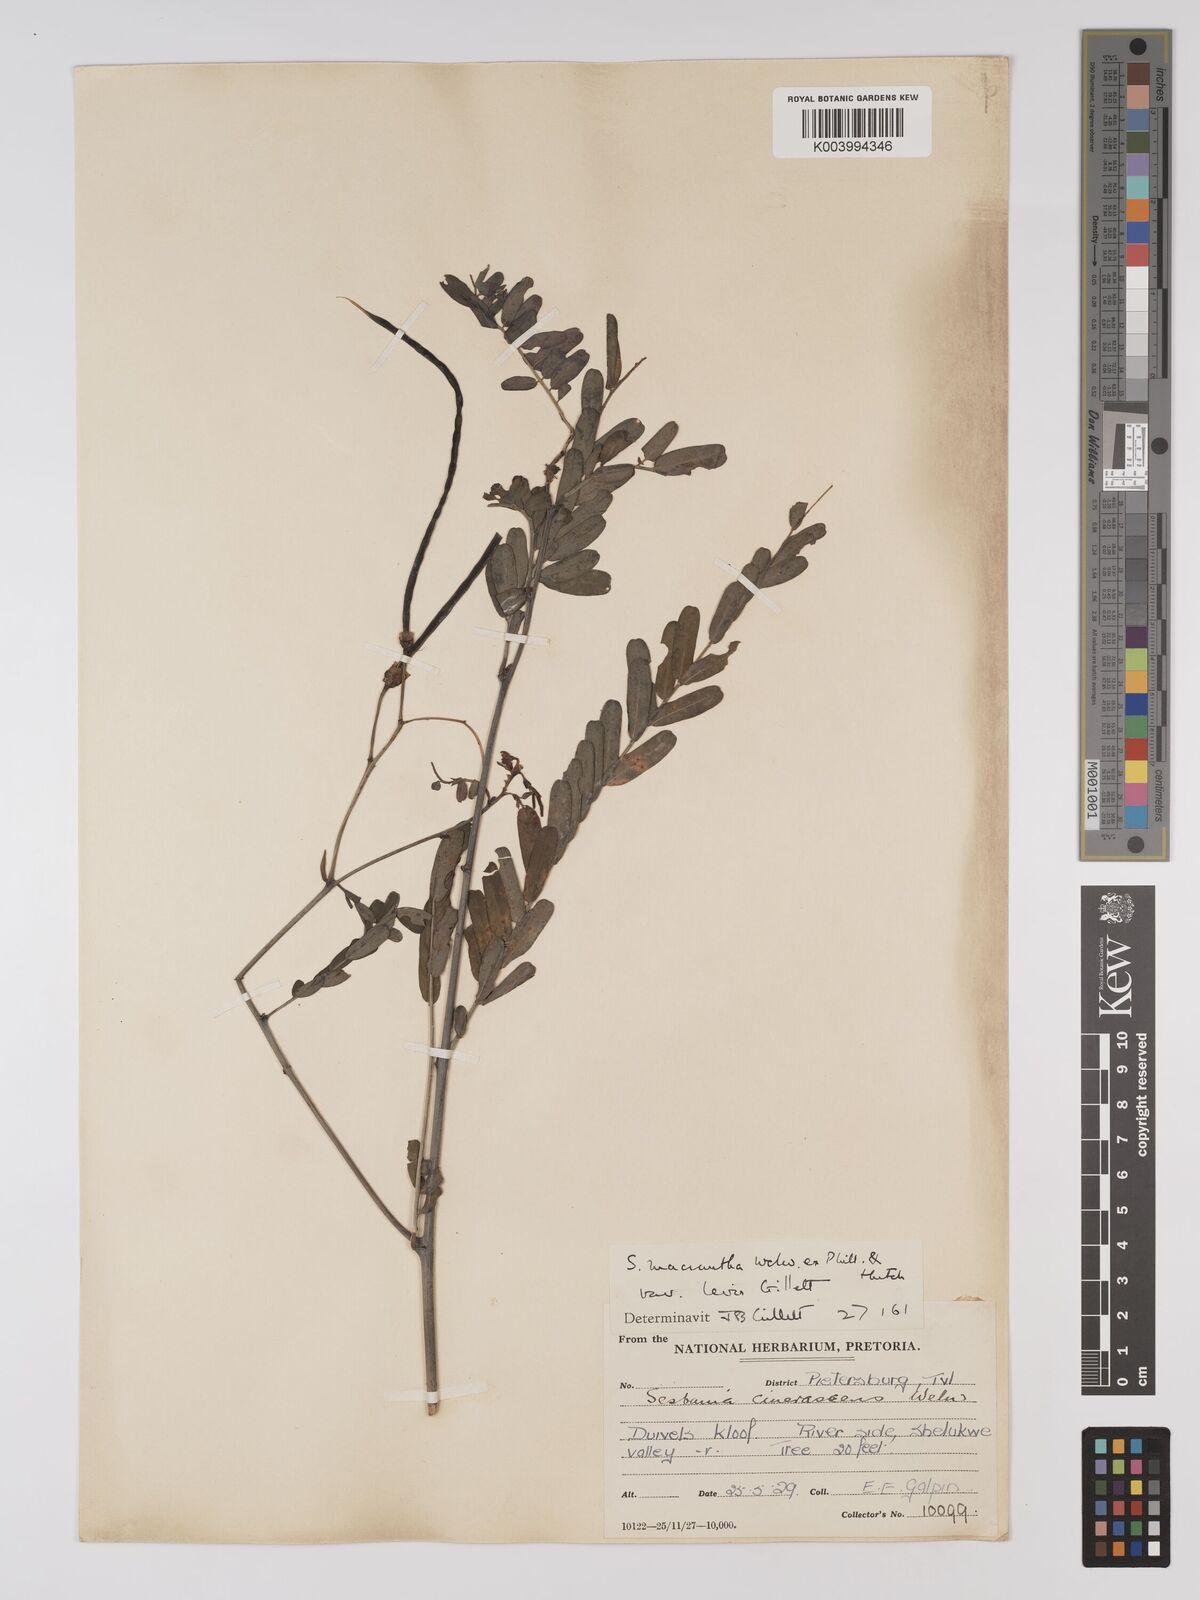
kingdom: Plantae
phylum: Tracheophyta
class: Magnoliopsida
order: Fabales
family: Fabaceae
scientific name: Fabaceae
